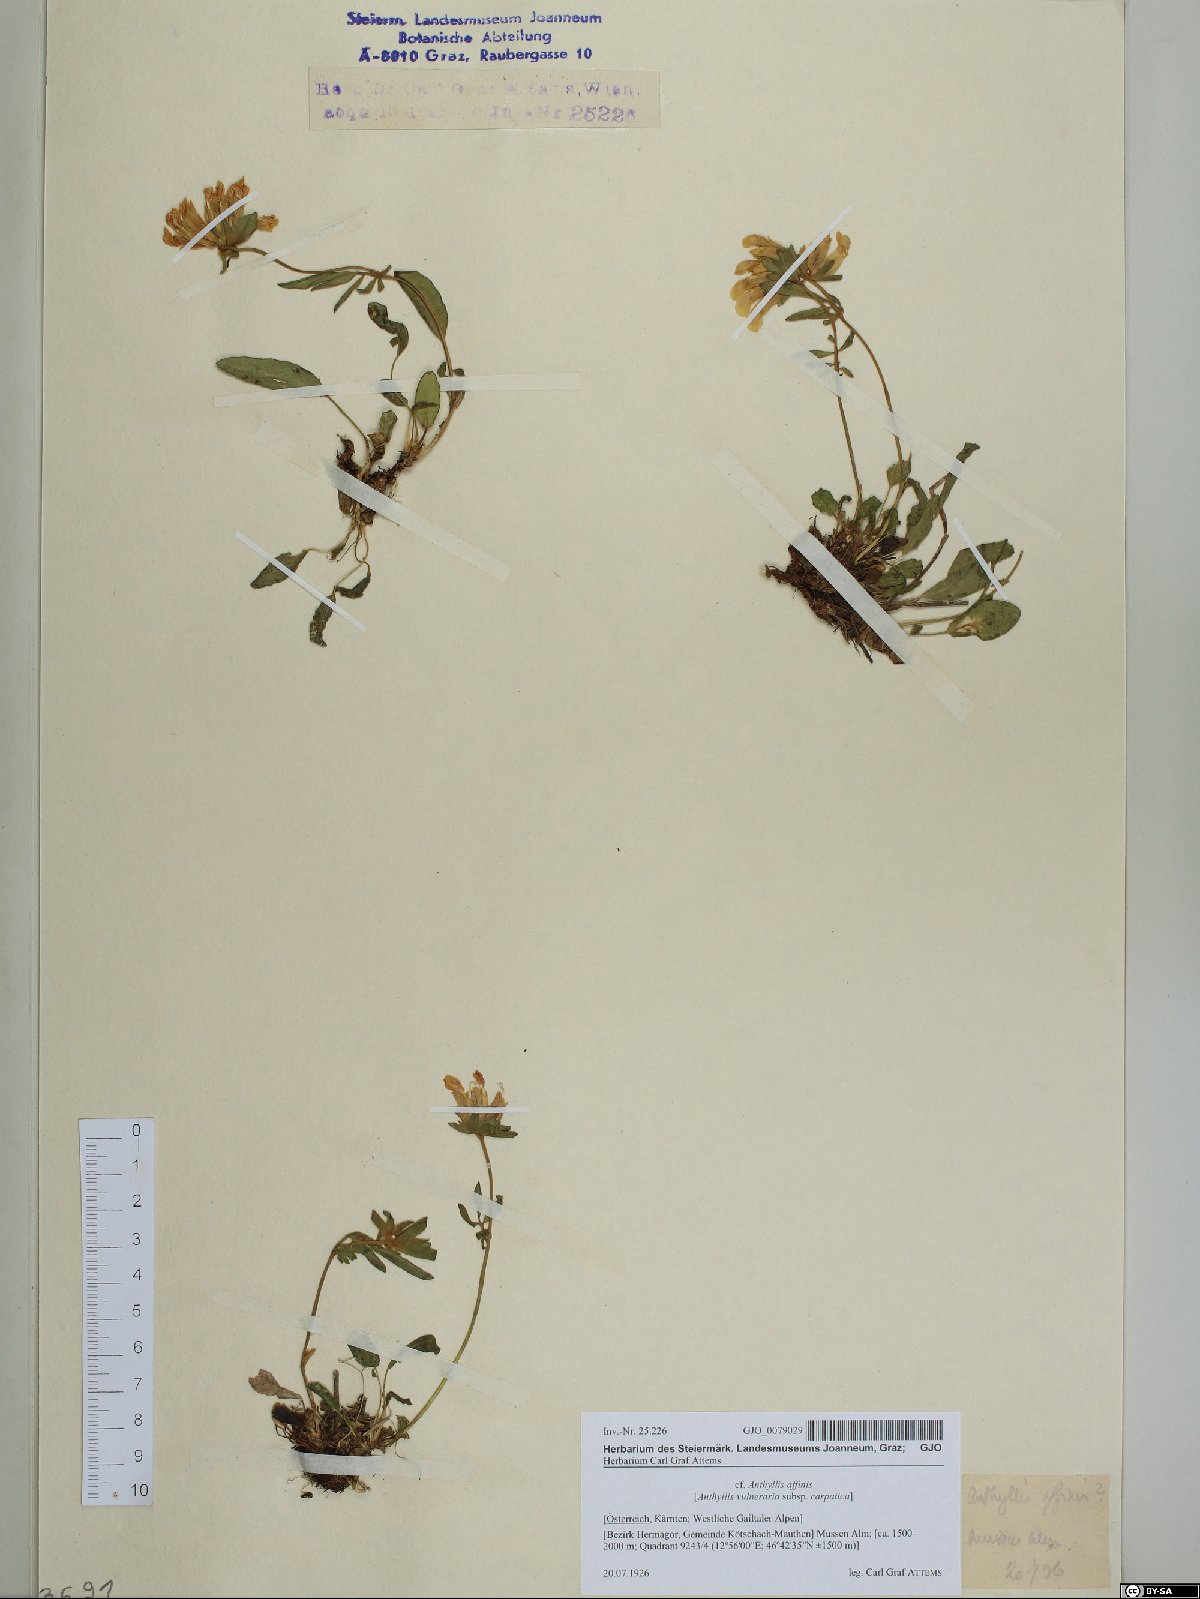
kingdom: Plantae
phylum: Tracheophyta
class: Magnoliopsida
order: Fabales
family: Fabaceae
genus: Anthyllis
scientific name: Anthyllis vulneraria
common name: Kidney vetch
